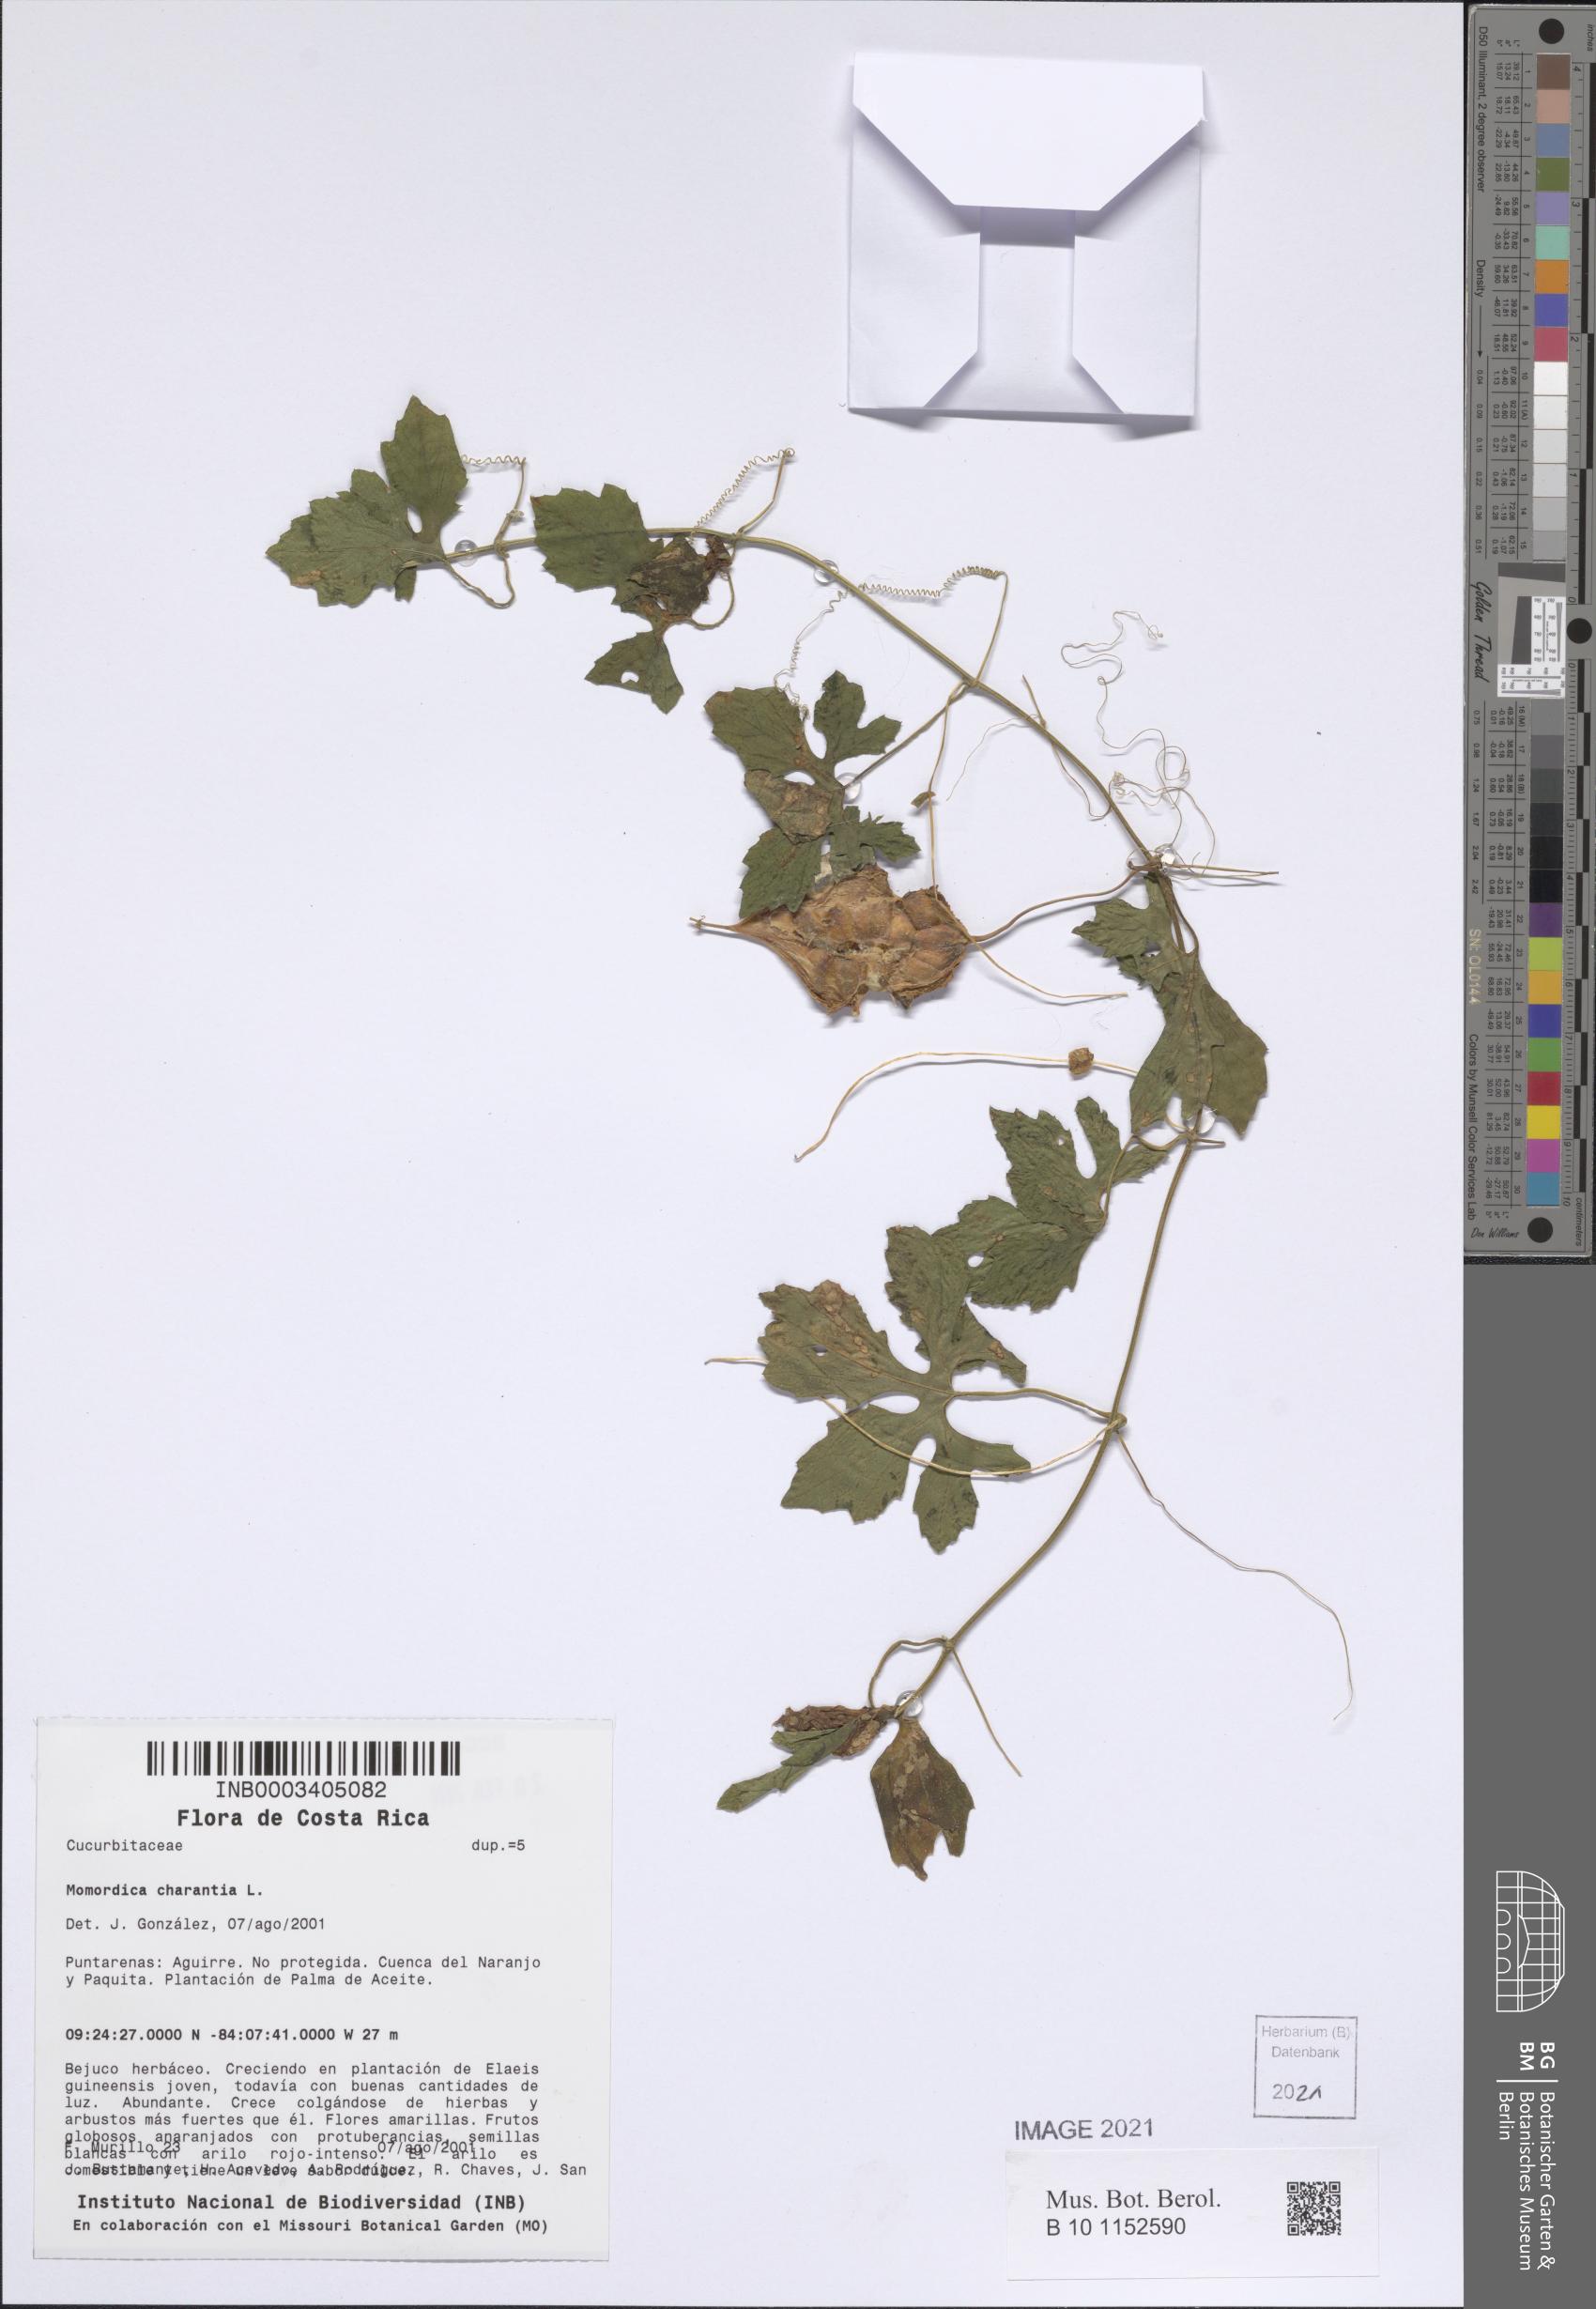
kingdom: Plantae
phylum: Tracheophyta
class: Magnoliopsida
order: Cucurbitales
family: Cucurbitaceae
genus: Momordica
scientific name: Momordica charantia
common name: Balsampear
